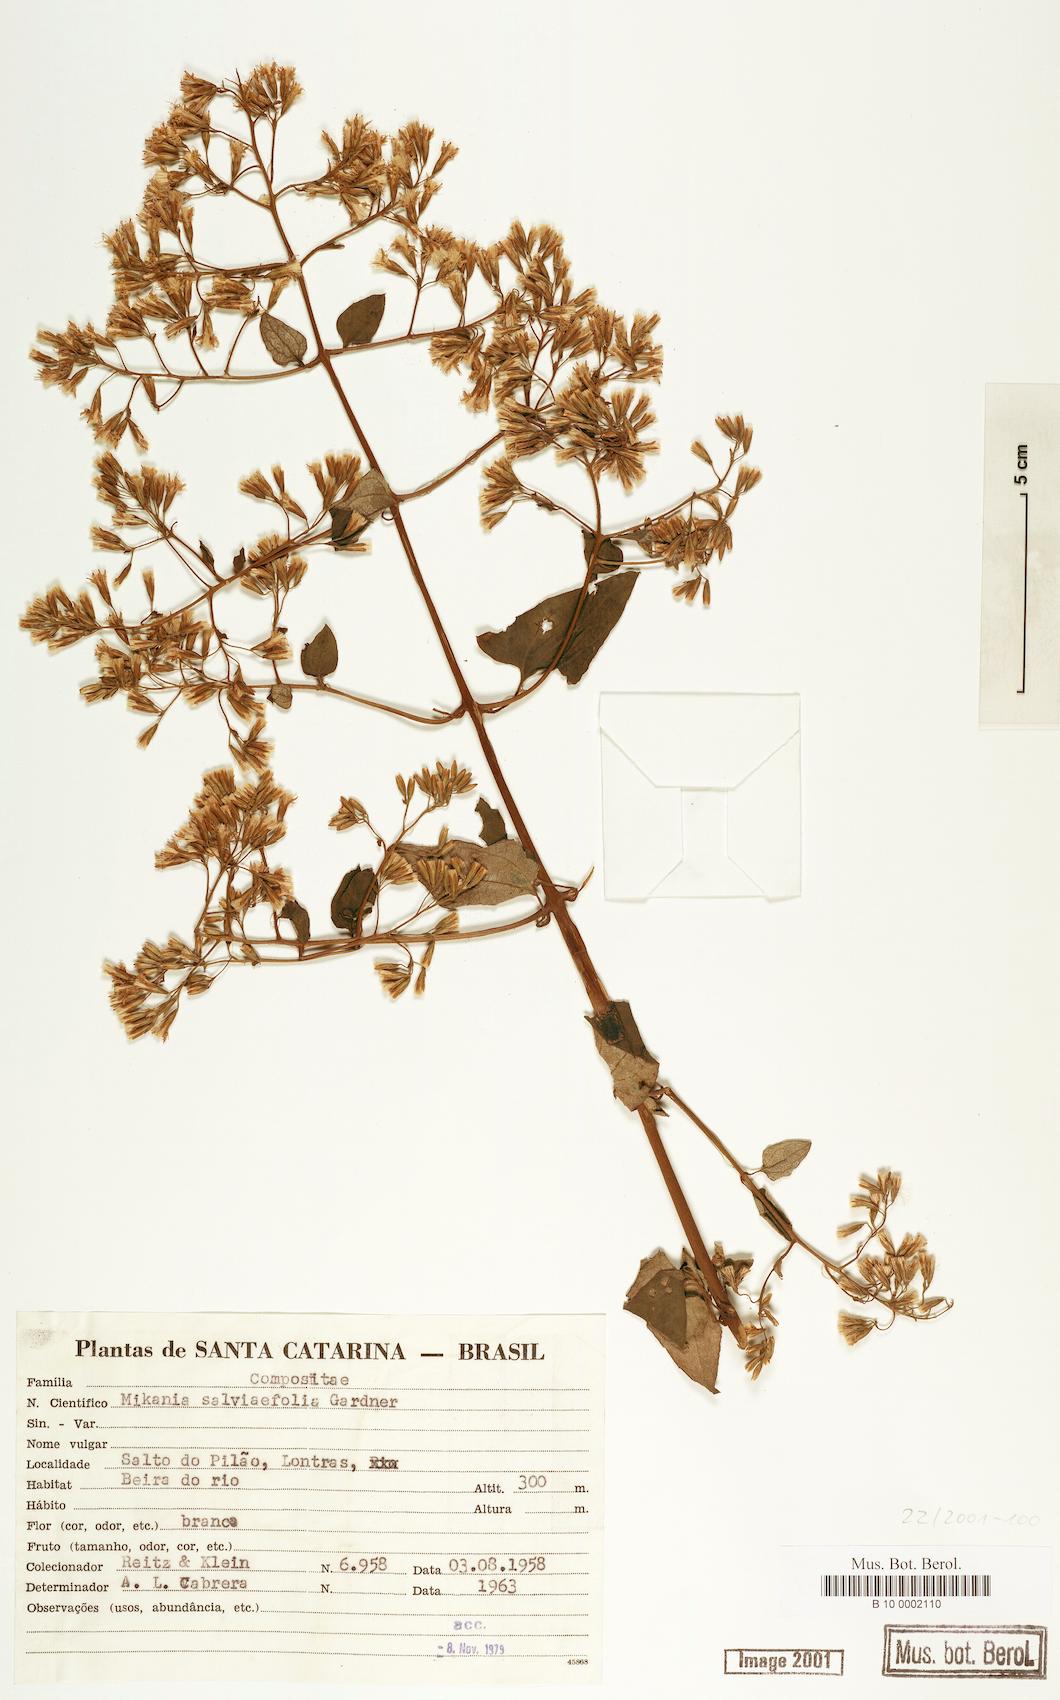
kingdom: Plantae
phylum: Tracheophyta
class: Magnoliopsida
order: Asterales
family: Asteraceae
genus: Mikania
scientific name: Mikania salviifolia
